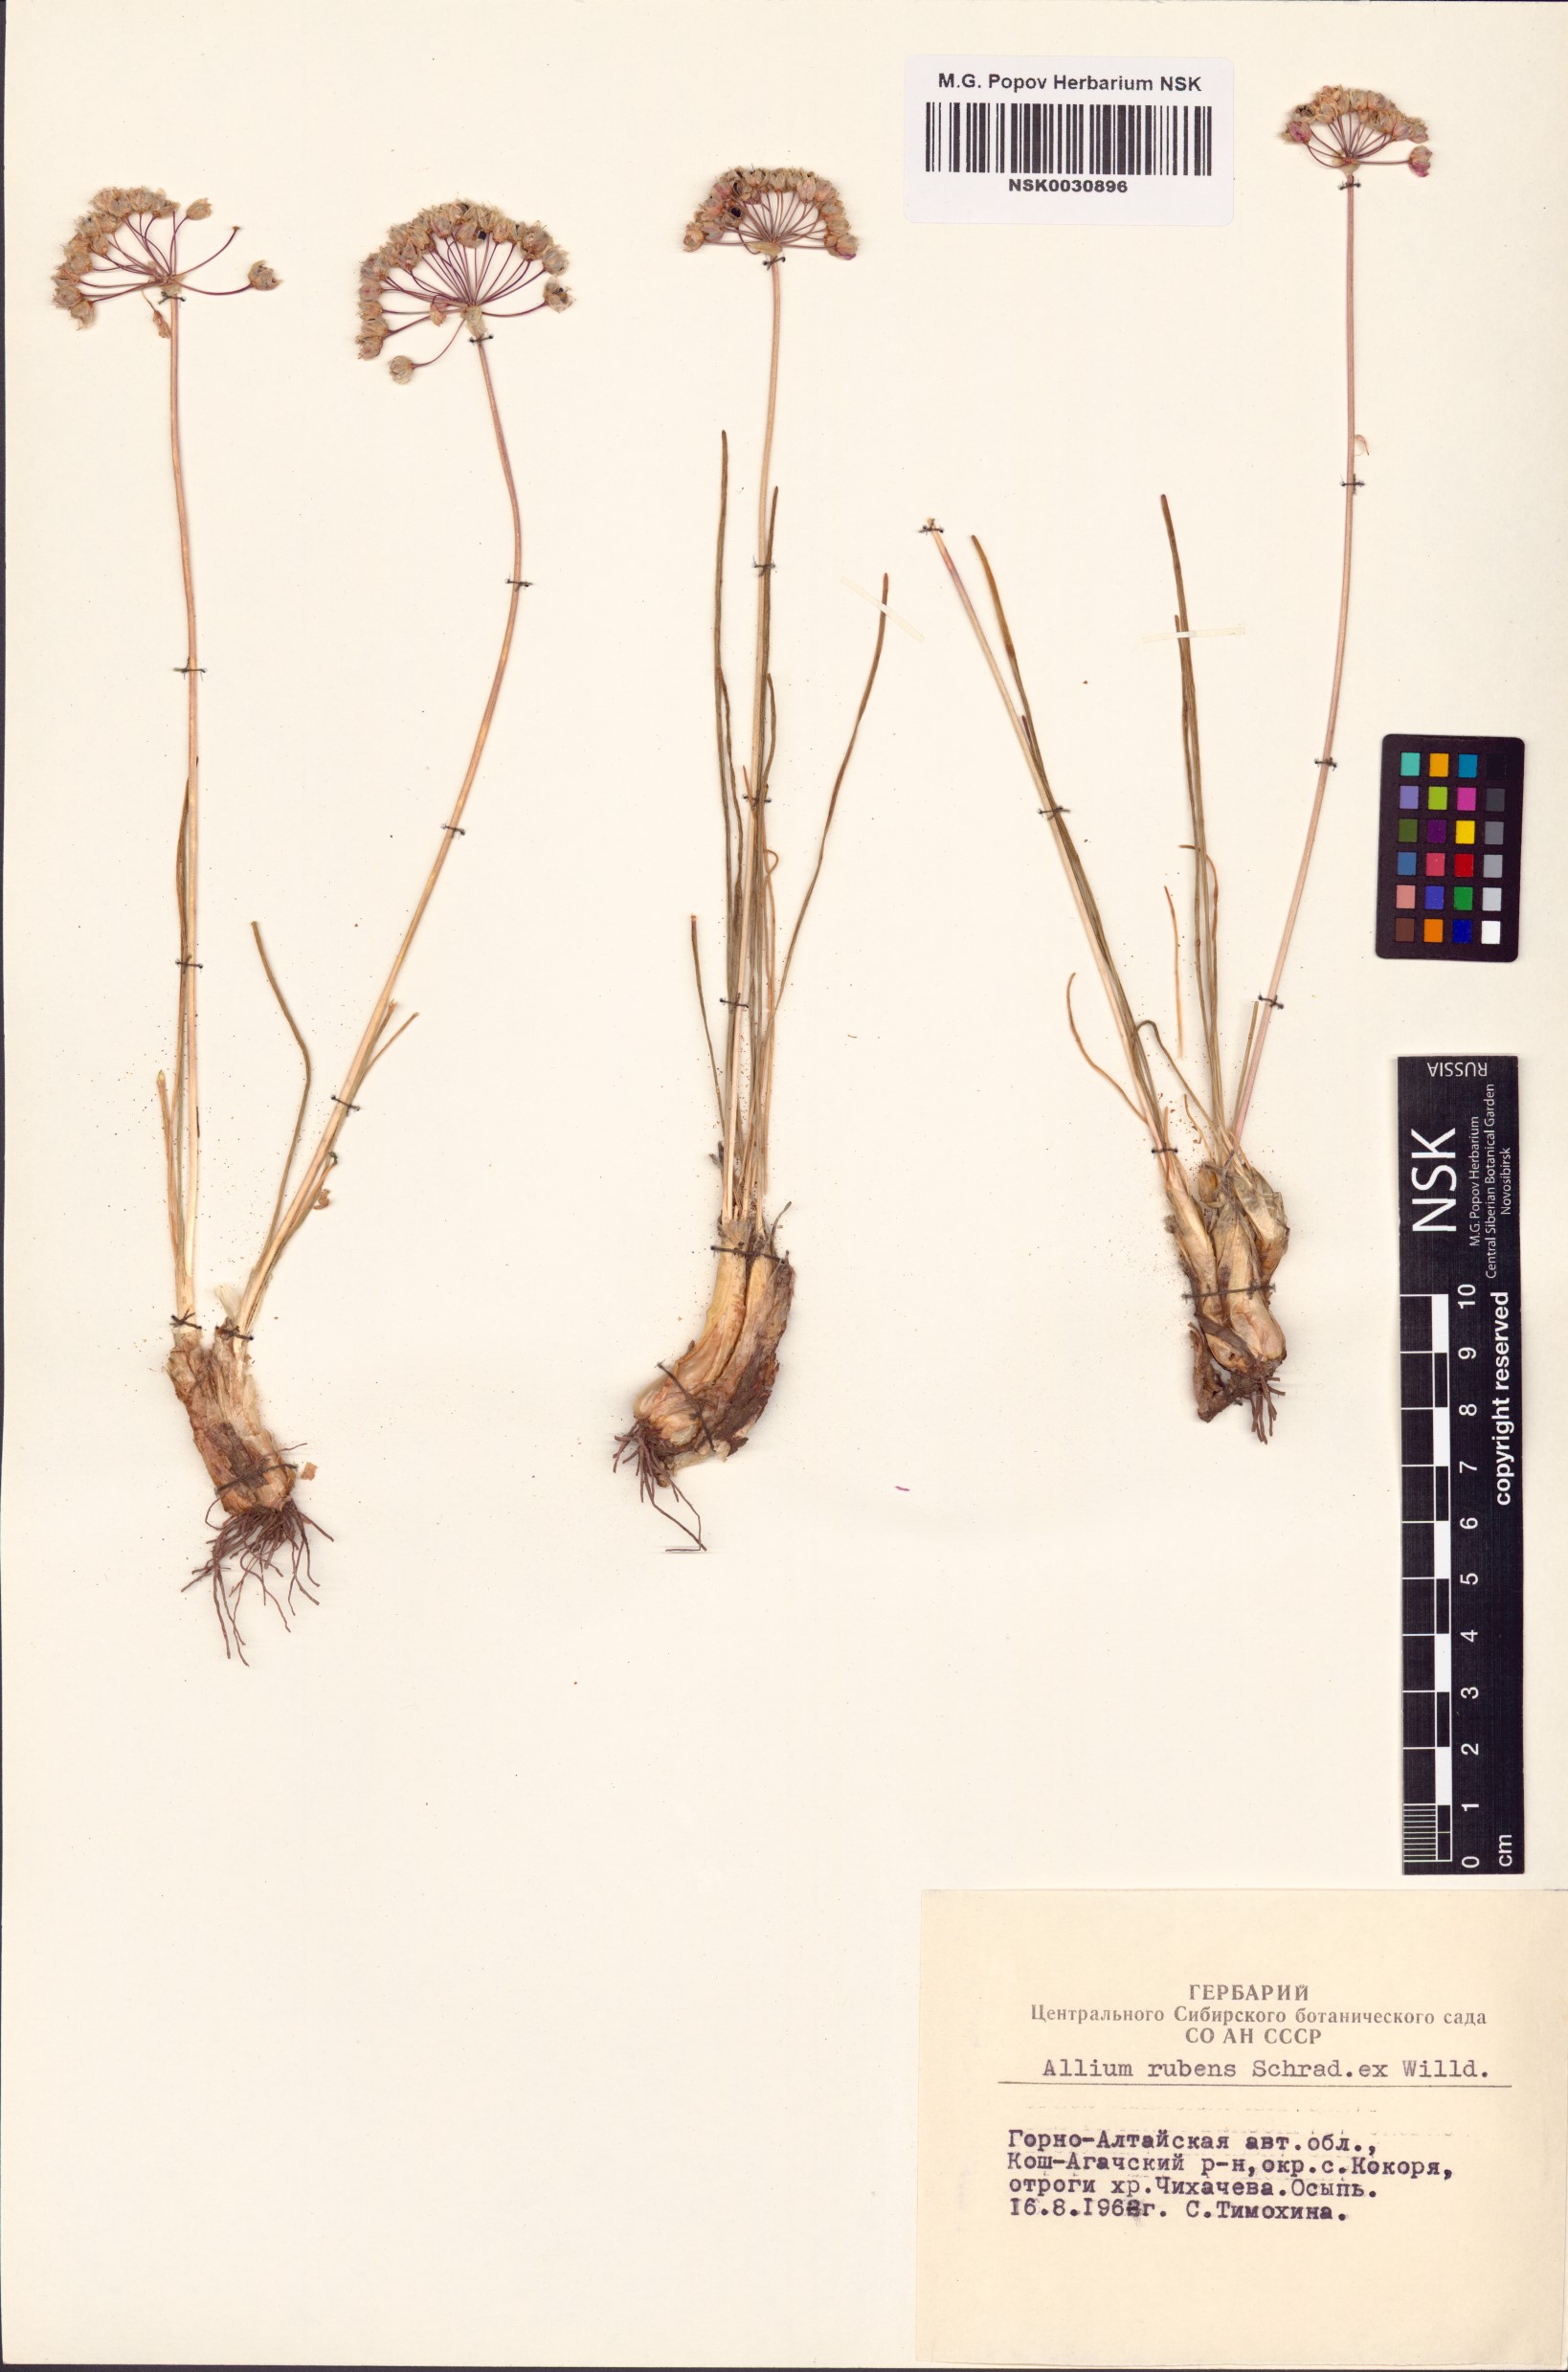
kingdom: Plantae
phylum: Tracheophyta
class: Liliopsida
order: Asparagales
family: Amaryllidaceae
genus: Allium
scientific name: Allium rubens
